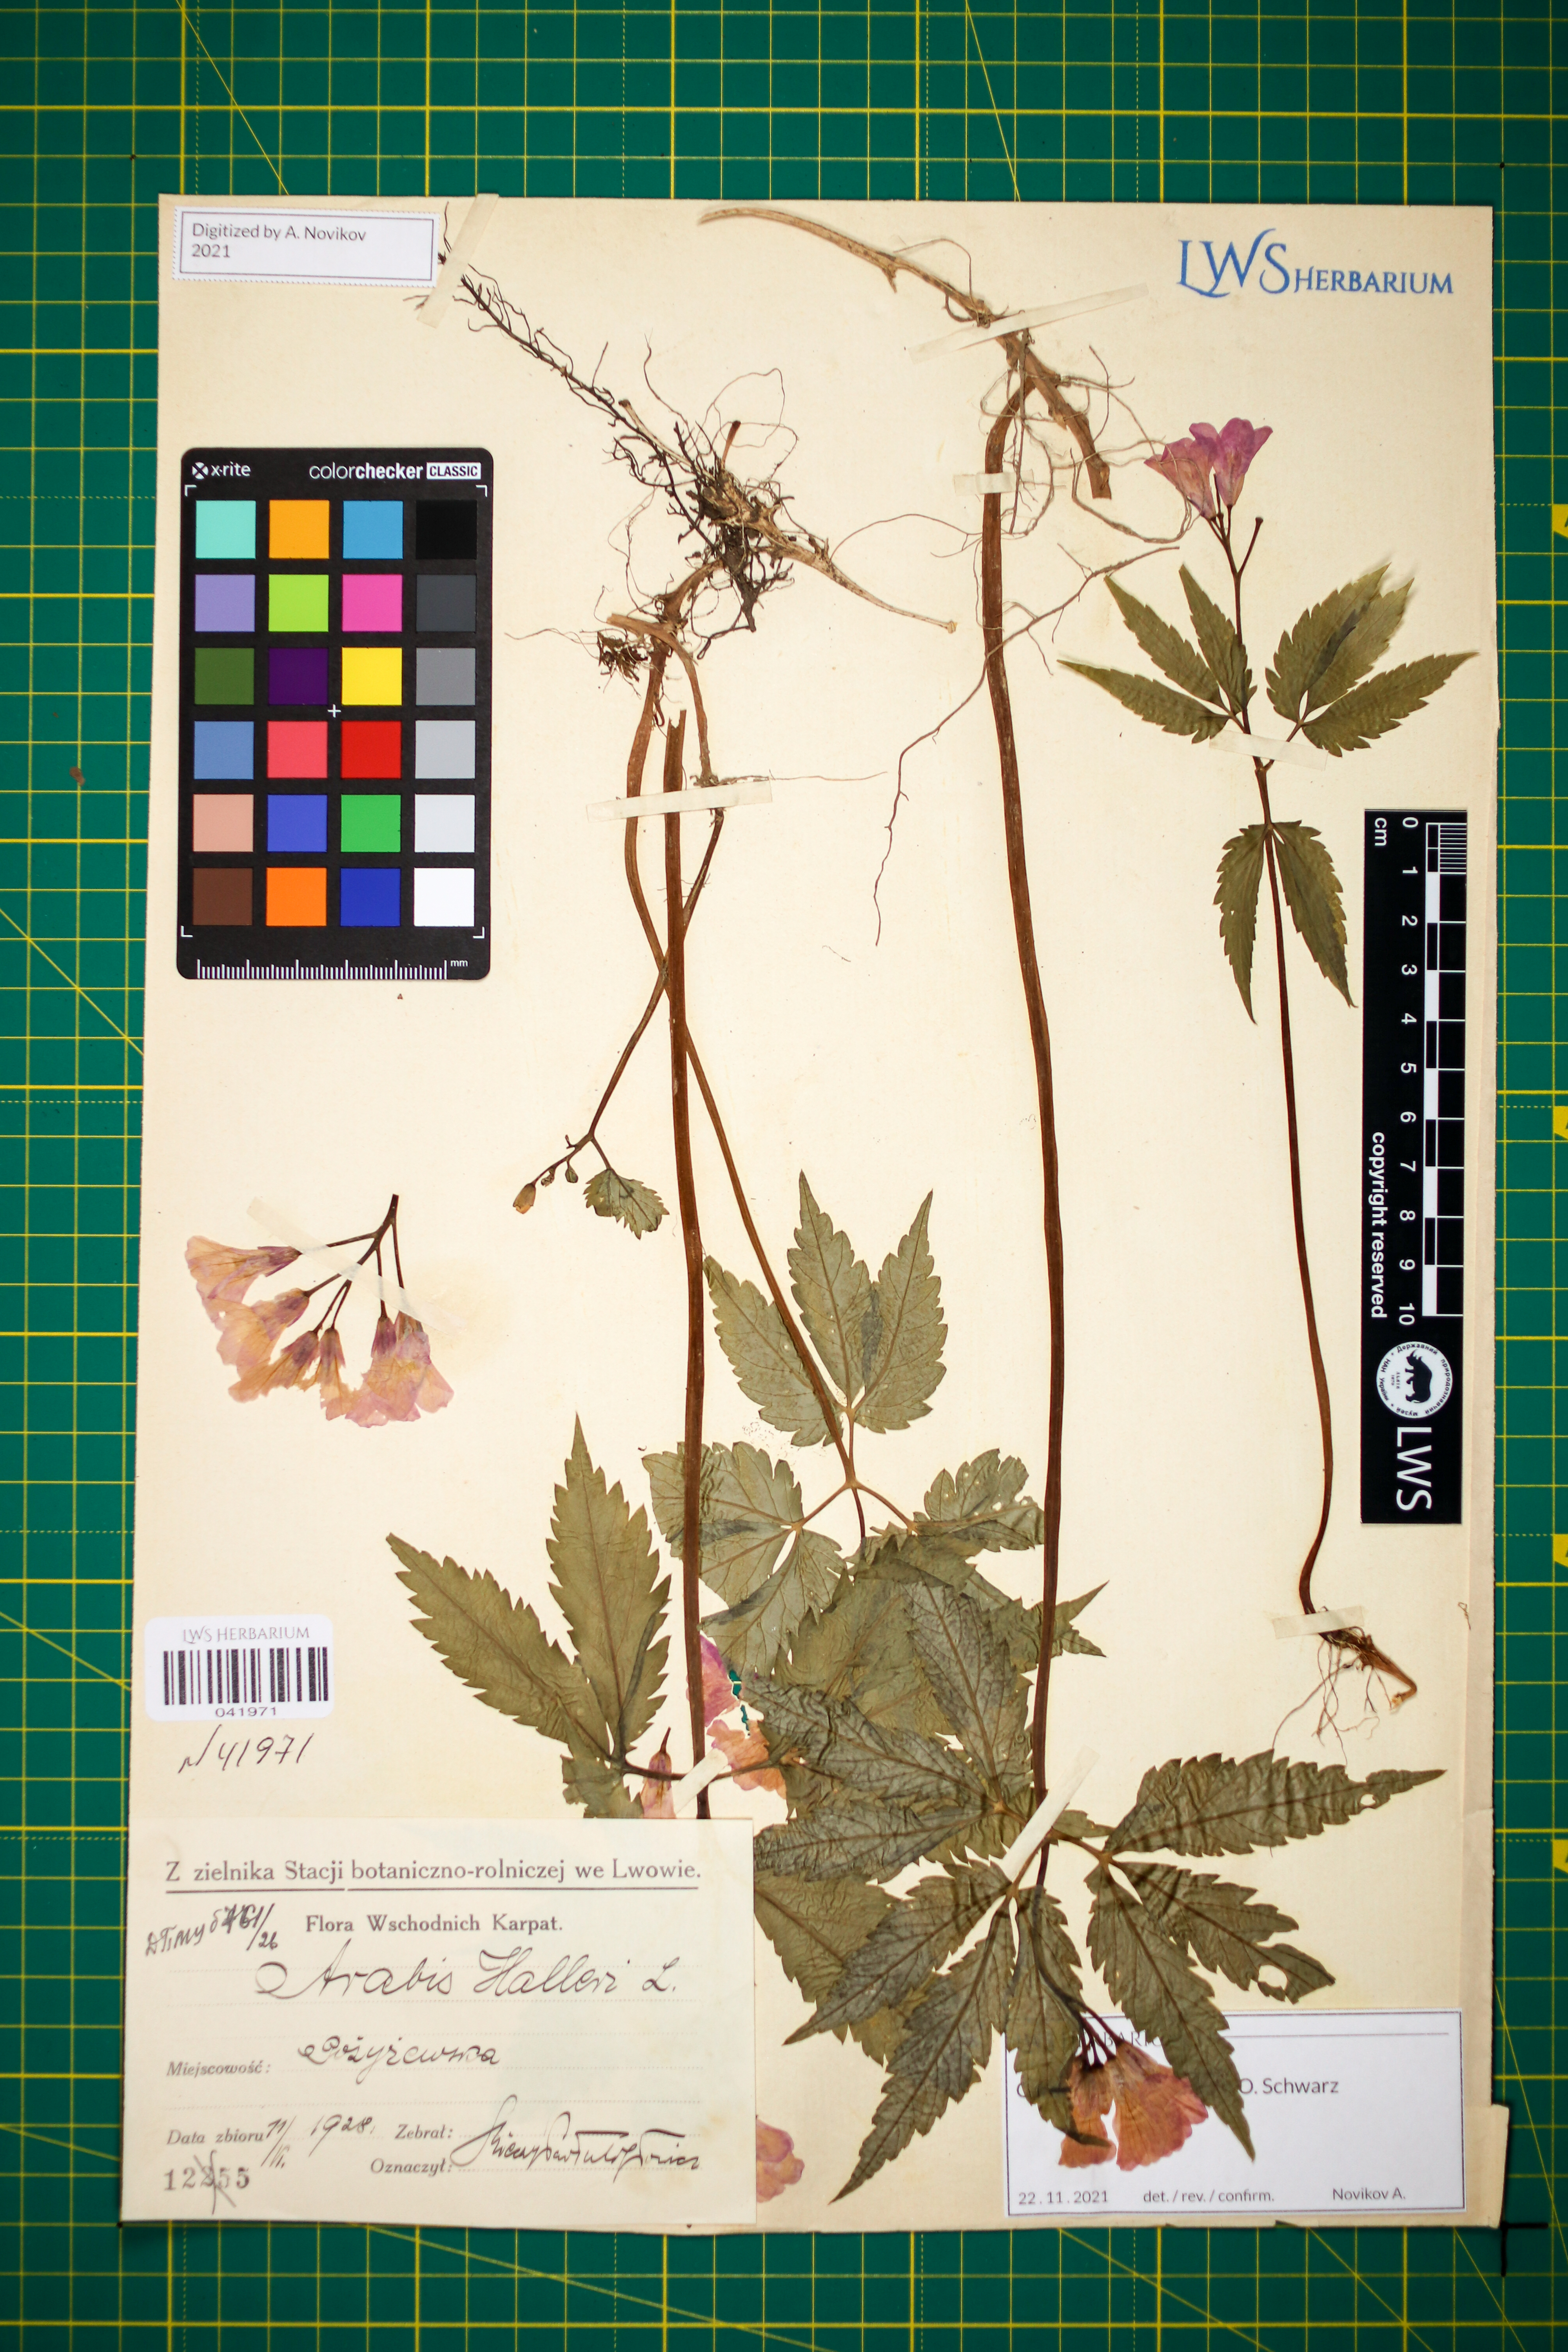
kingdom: Plantae
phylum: Tracheophyta
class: Magnoliopsida
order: Brassicales
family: Brassicaceae
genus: Cardamine
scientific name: Cardamine glanduligera
